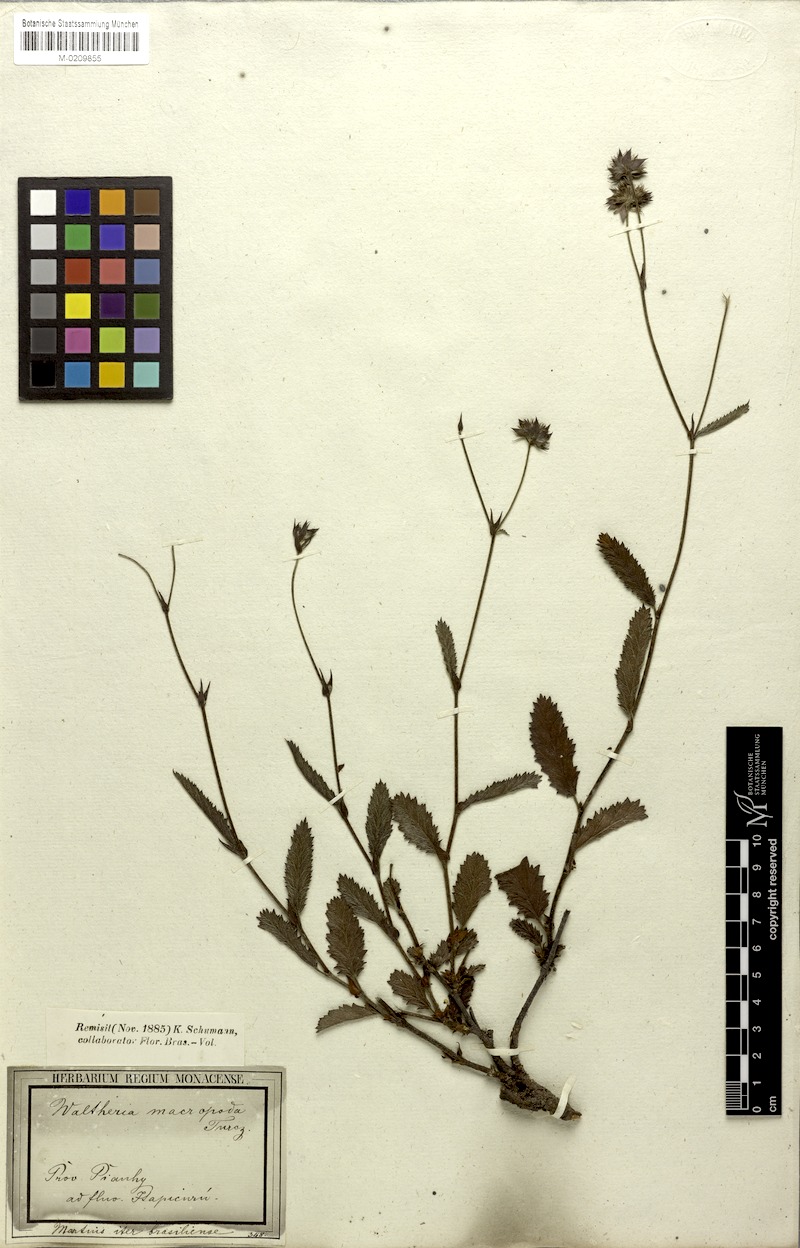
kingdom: Plantae
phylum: Tracheophyta
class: Magnoliopsida
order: Malvales
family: Malvaceae
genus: Waltheria
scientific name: Waltheria bracteosa
